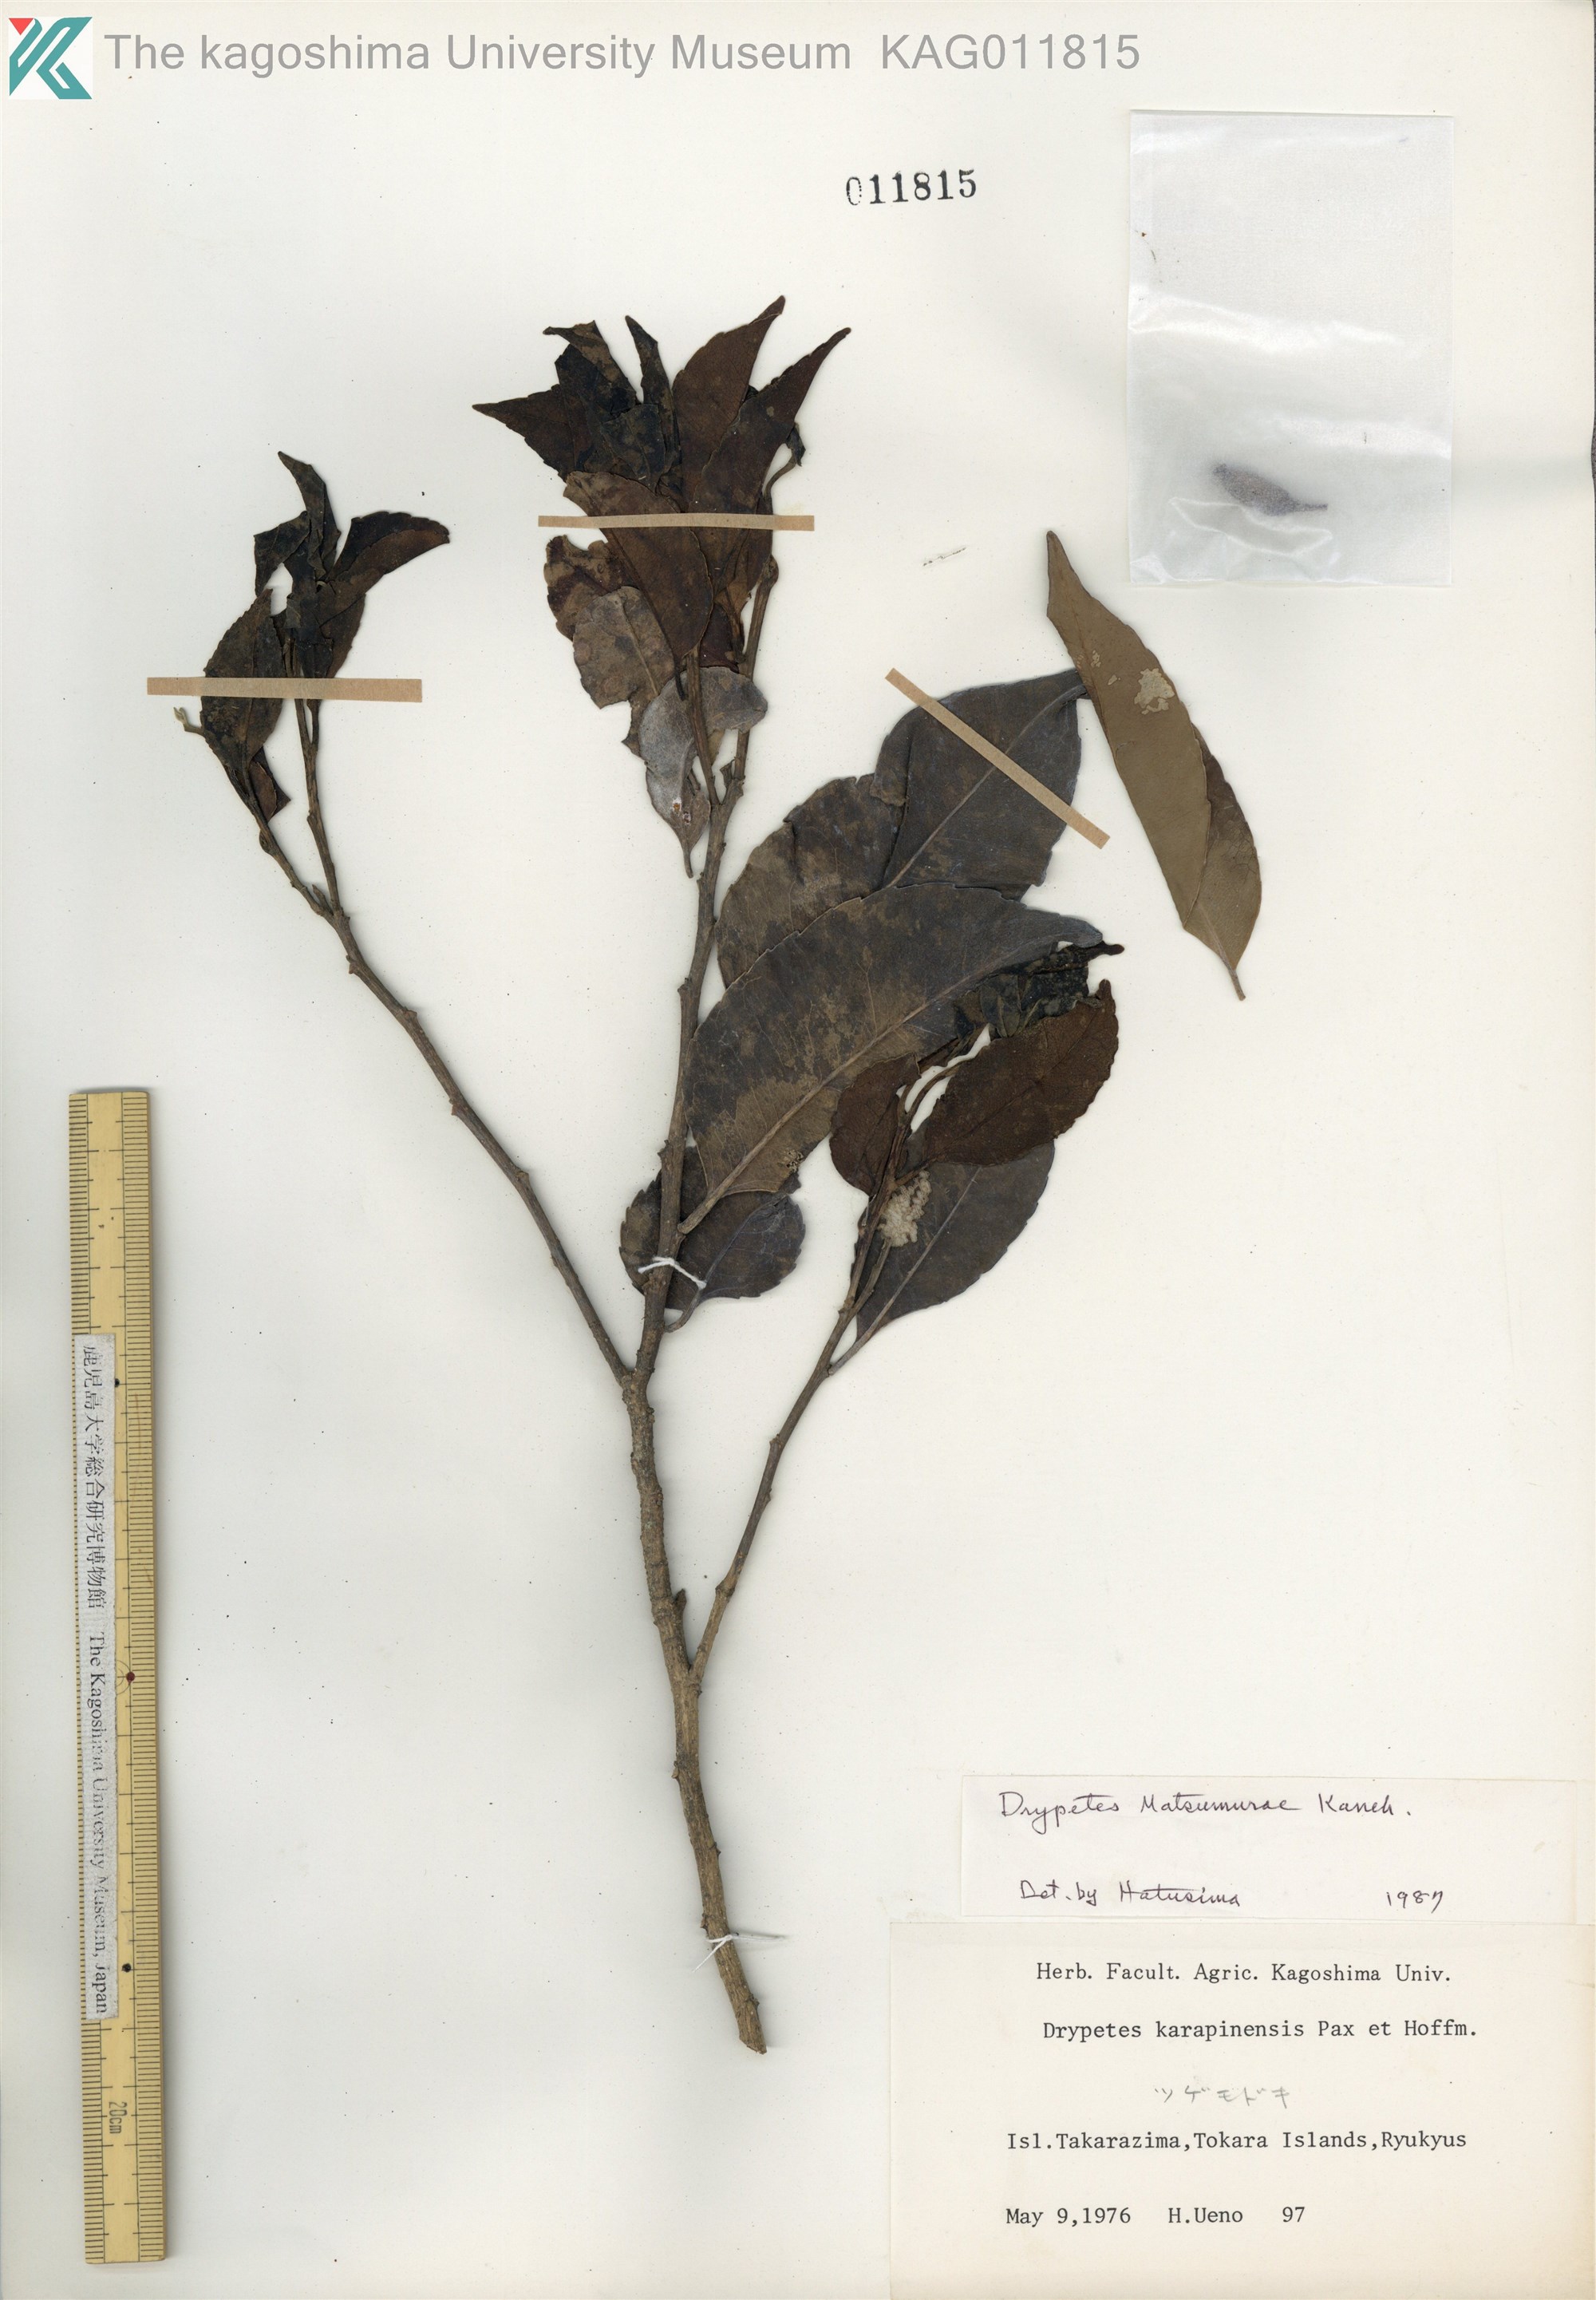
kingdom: Plantae
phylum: Tracheophyta
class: Magnoliopsida
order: Malpighiales
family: Putranjivaceae
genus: Putranjiva
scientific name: Putranjiva matsumurae
